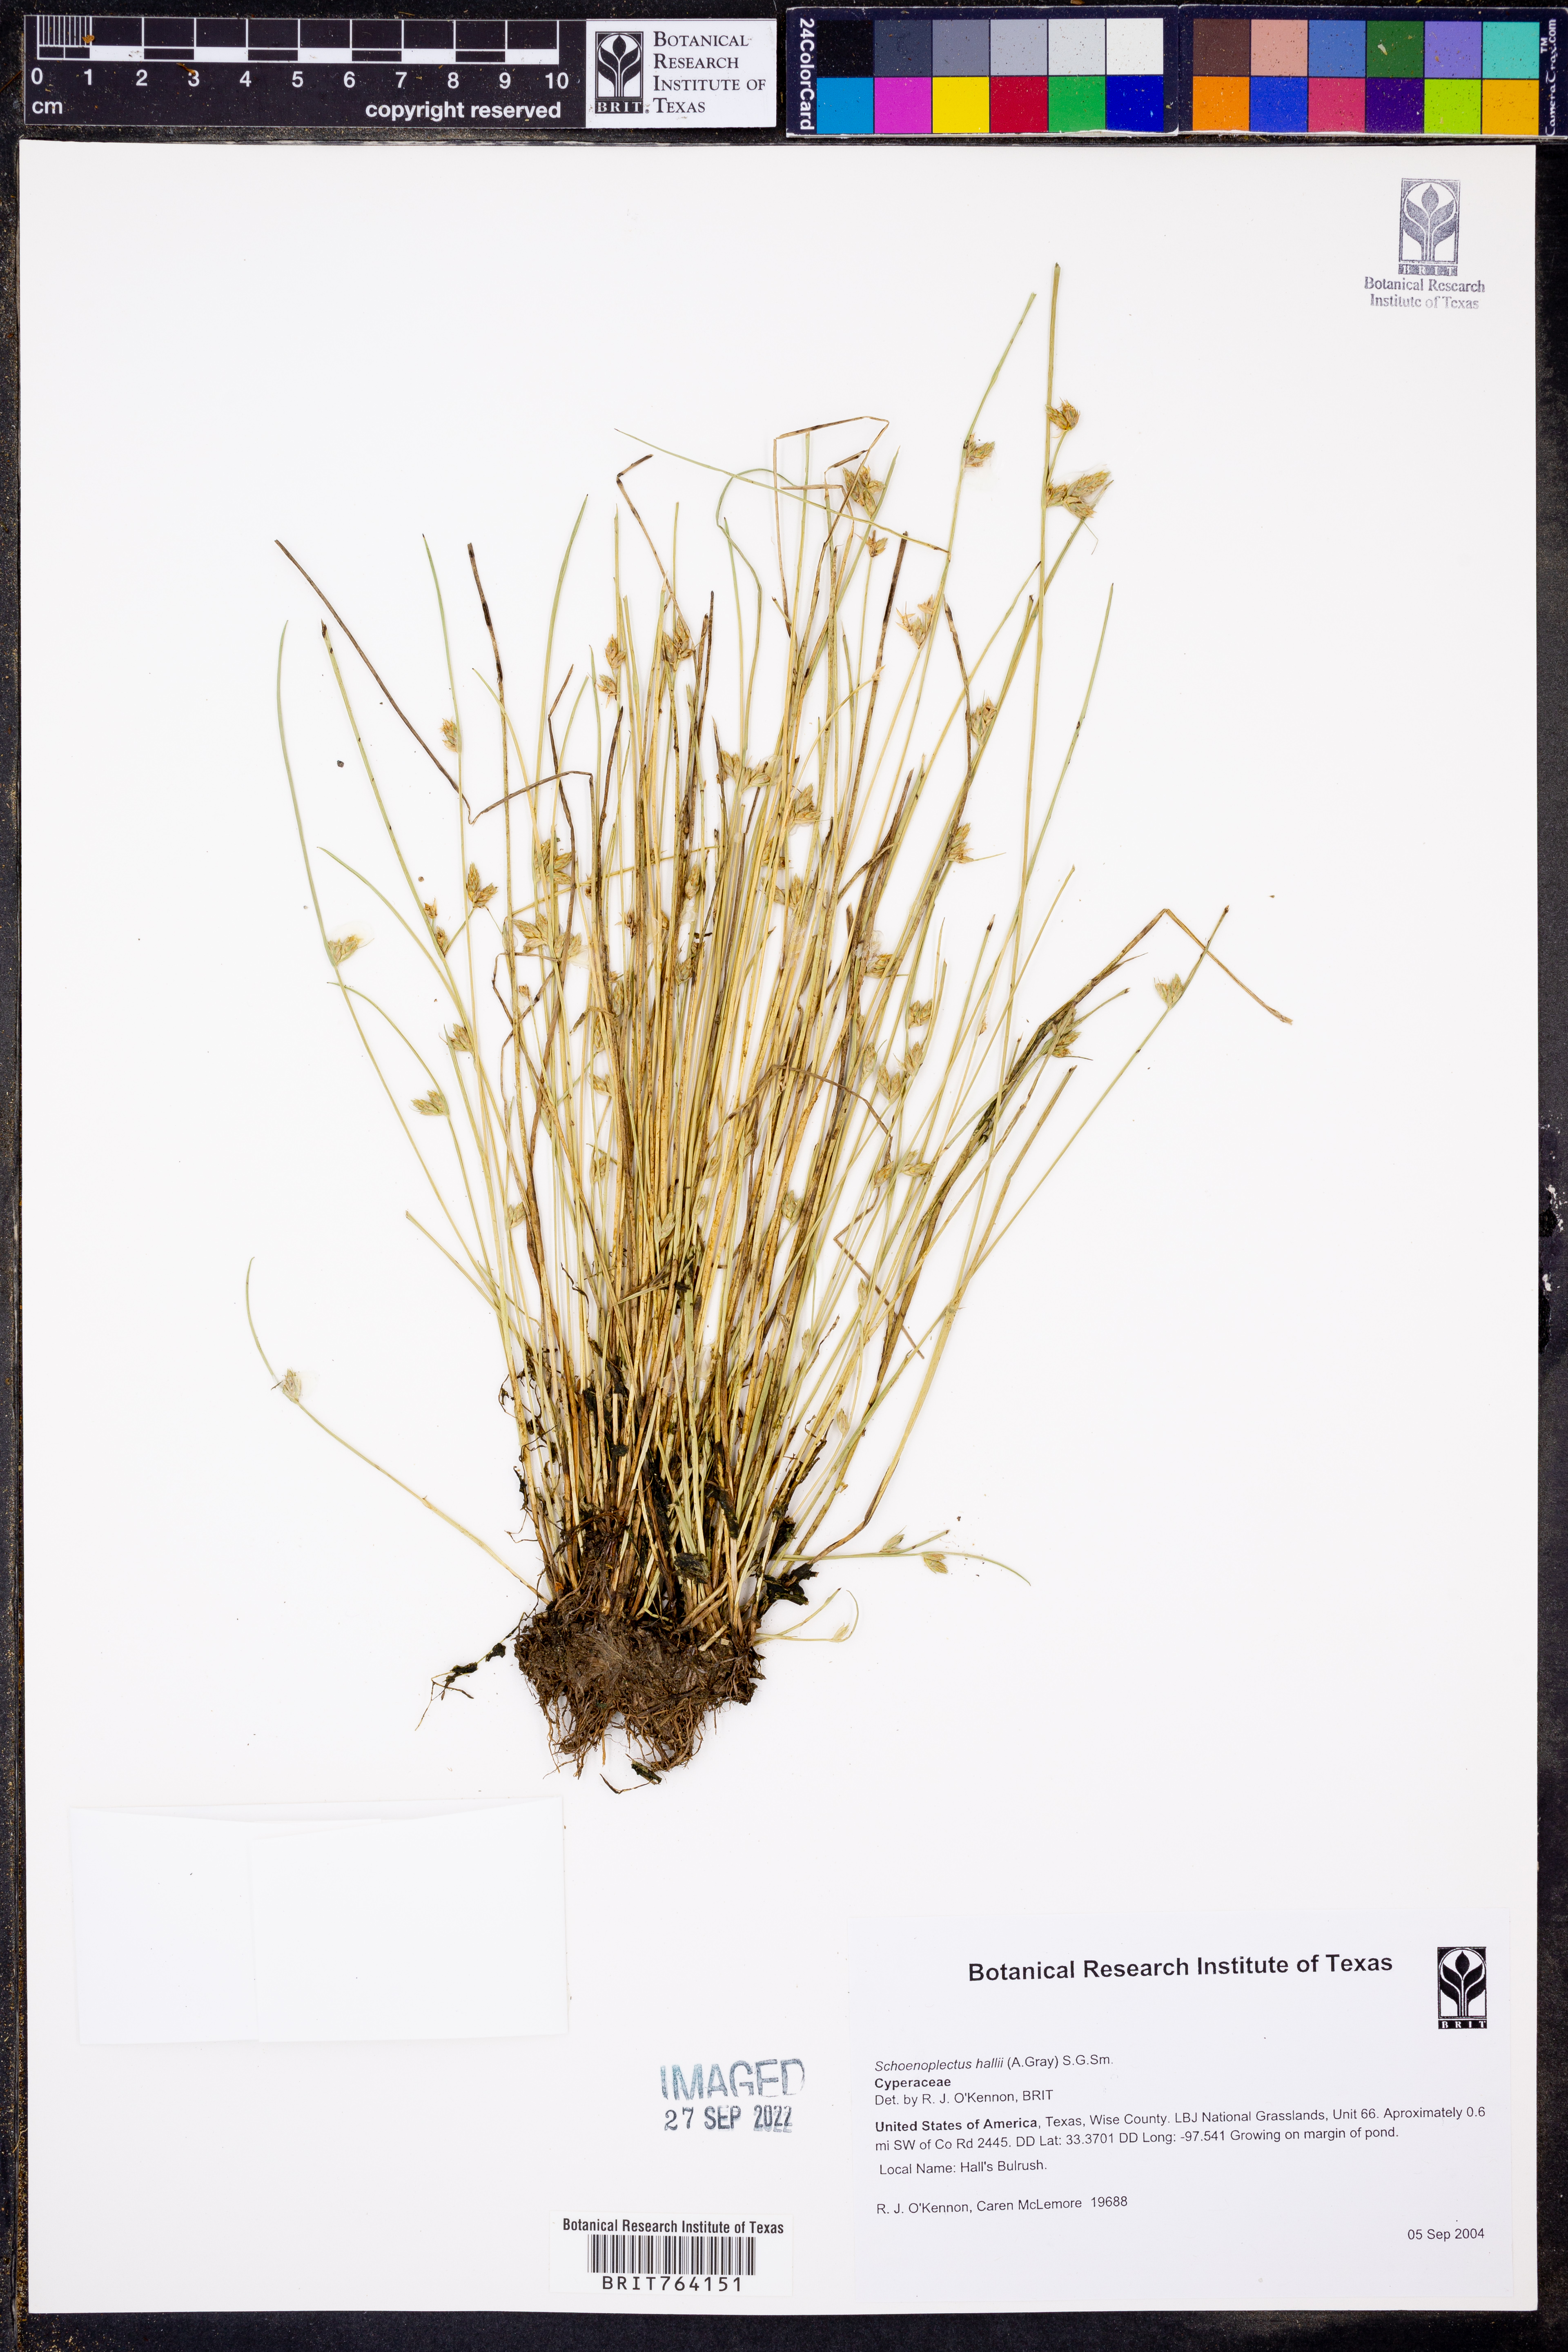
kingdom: Plantae
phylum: Tracheophyta
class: Liliopsida
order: Poales
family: Cyperaceae
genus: Schoenoplectiella
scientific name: Schoenoplectiella hallii
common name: Hall's bullrush
